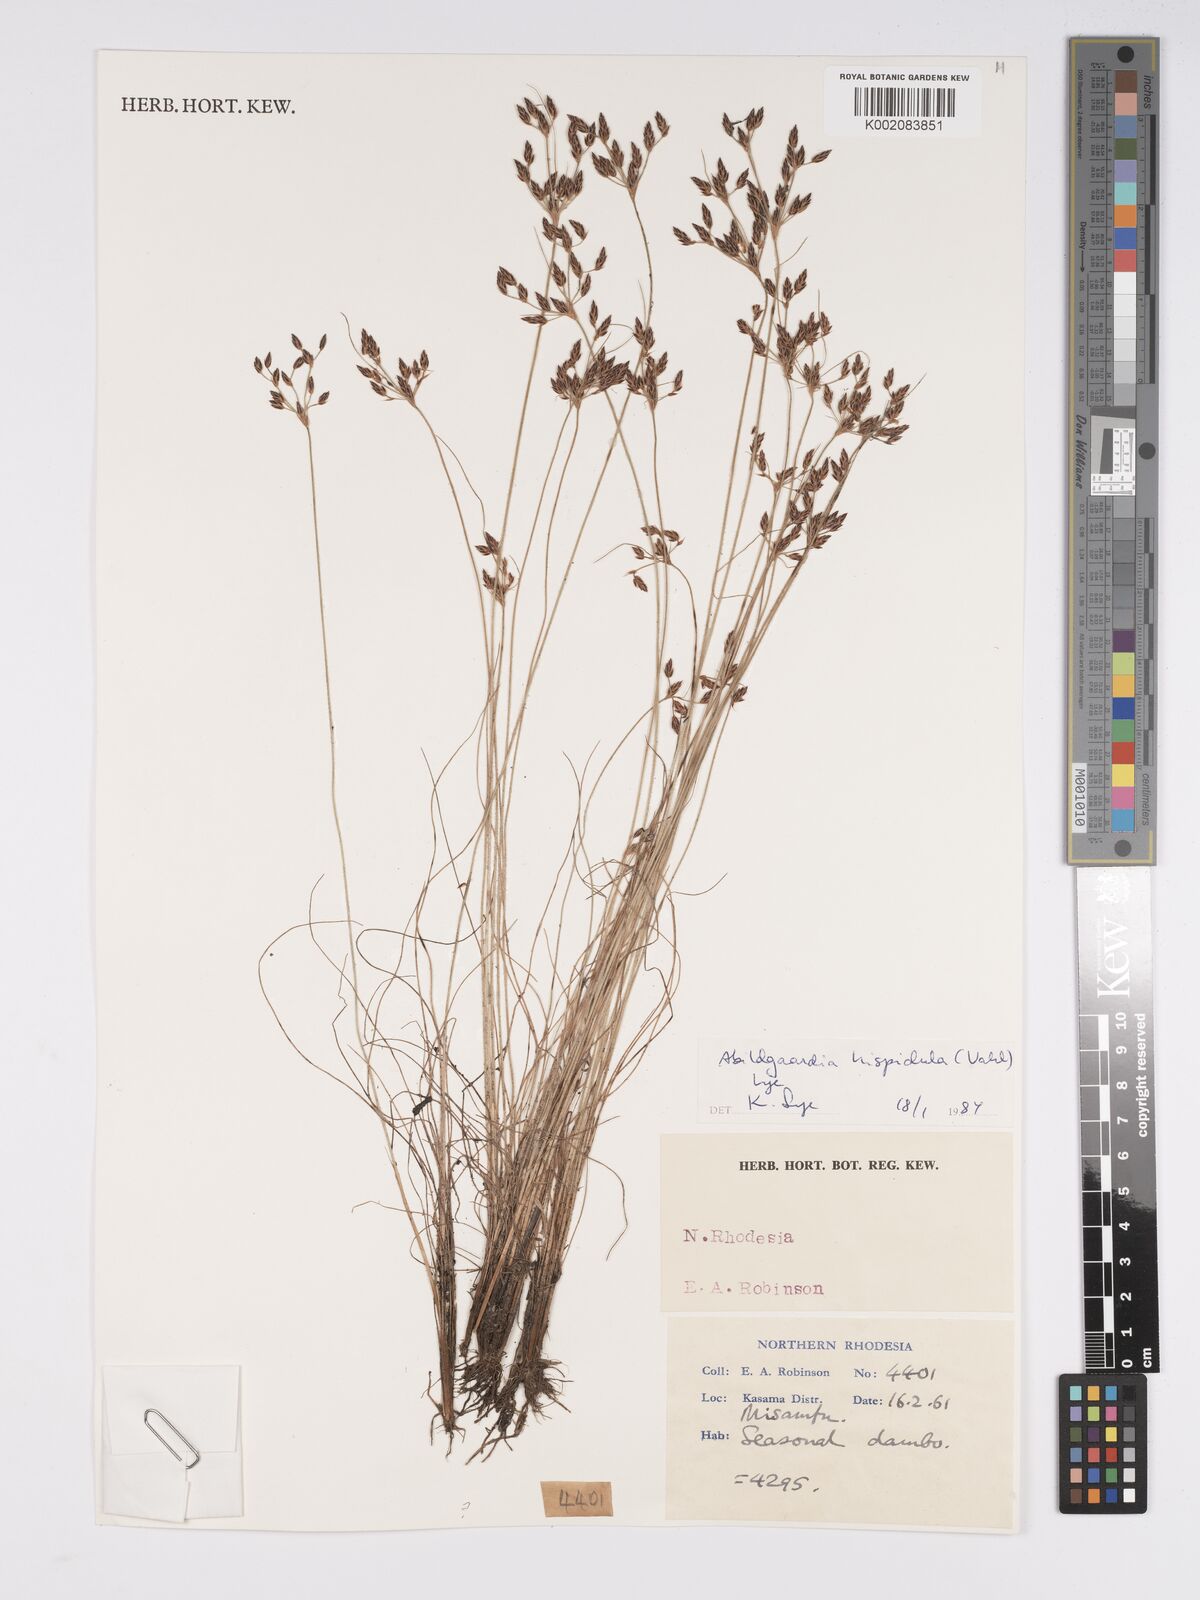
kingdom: Plantae
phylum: Tracheophyta
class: Liliopsida
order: Poales
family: Cyperaceae
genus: Bulbostylis
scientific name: Bulbostylis hispidula
